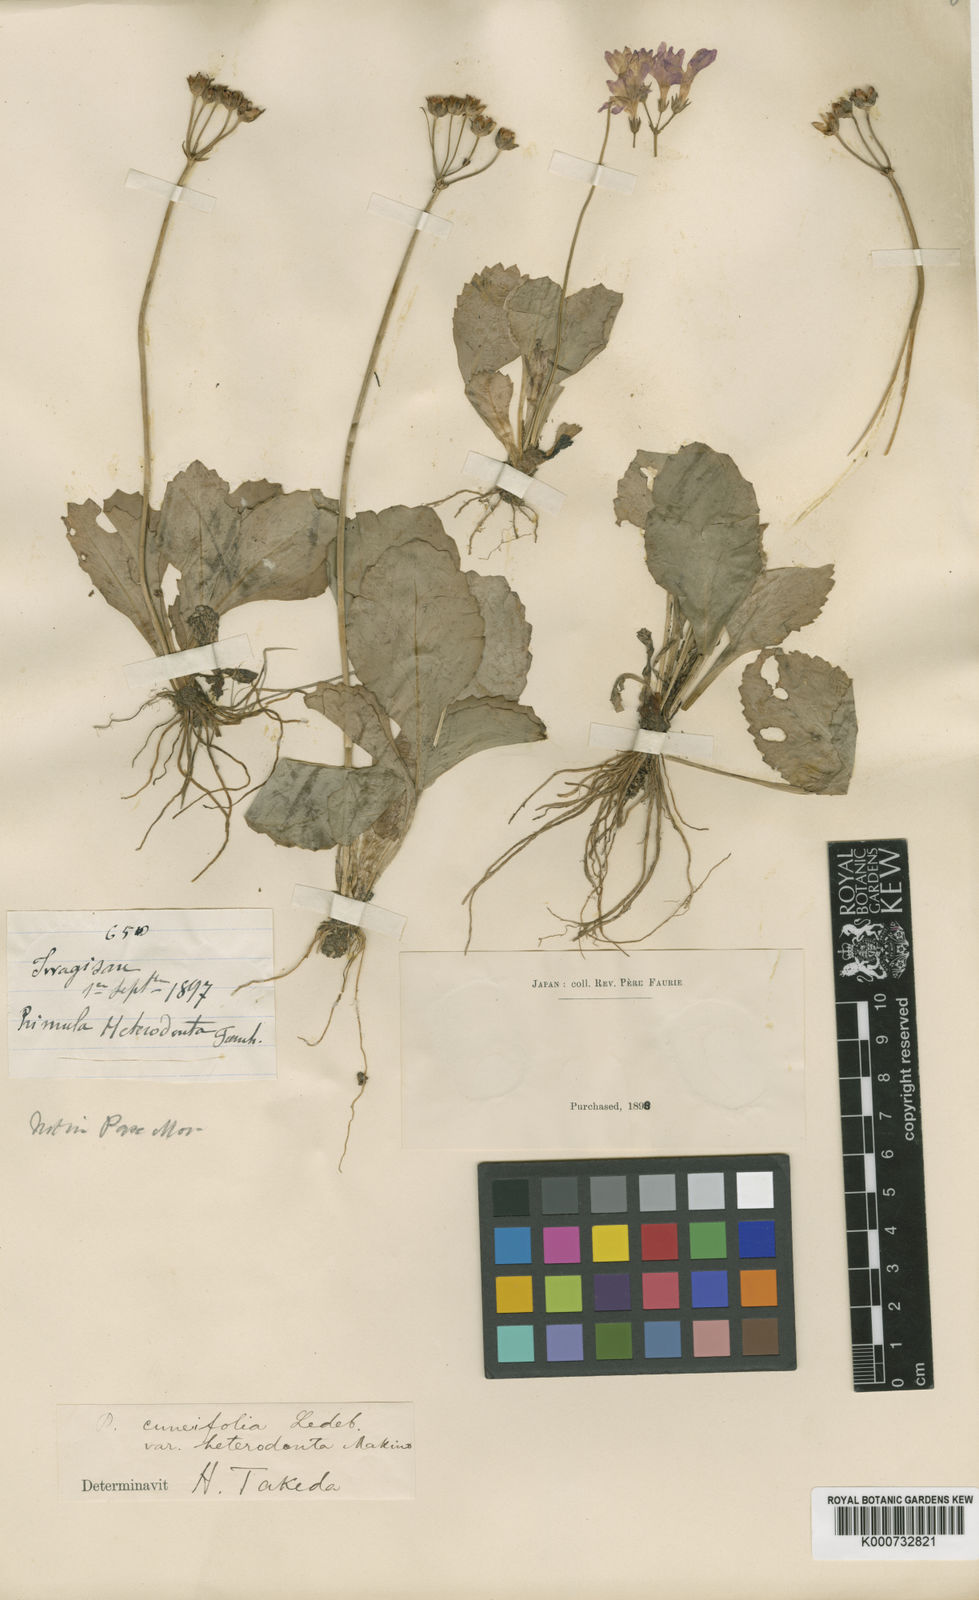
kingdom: Plantae
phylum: Tracheophyta
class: Magnoliopsida
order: Ericales
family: Primulaceae
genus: Primula
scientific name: Primula cuneifolia
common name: Wedge-leaved primrose
